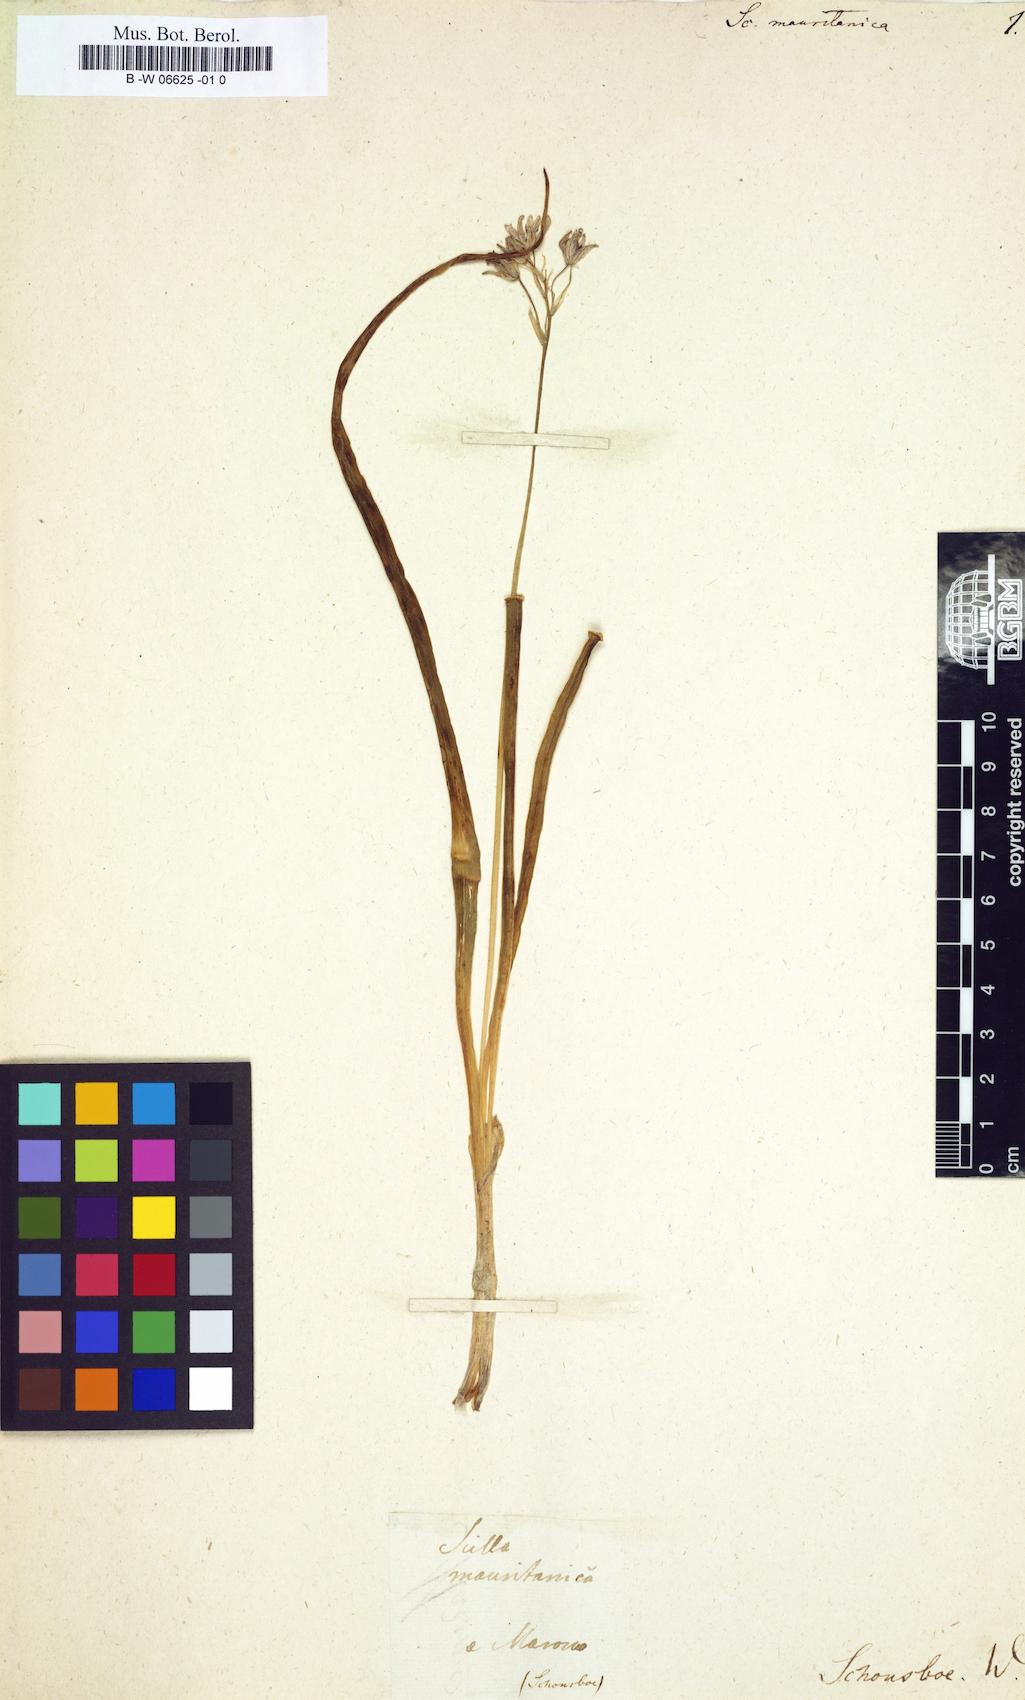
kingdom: Plantae
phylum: Tracheophyta
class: Liliopsida
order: Asparagales
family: Asparagaceae
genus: Hyacinthoides
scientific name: Hyacinthoides mauritanica
